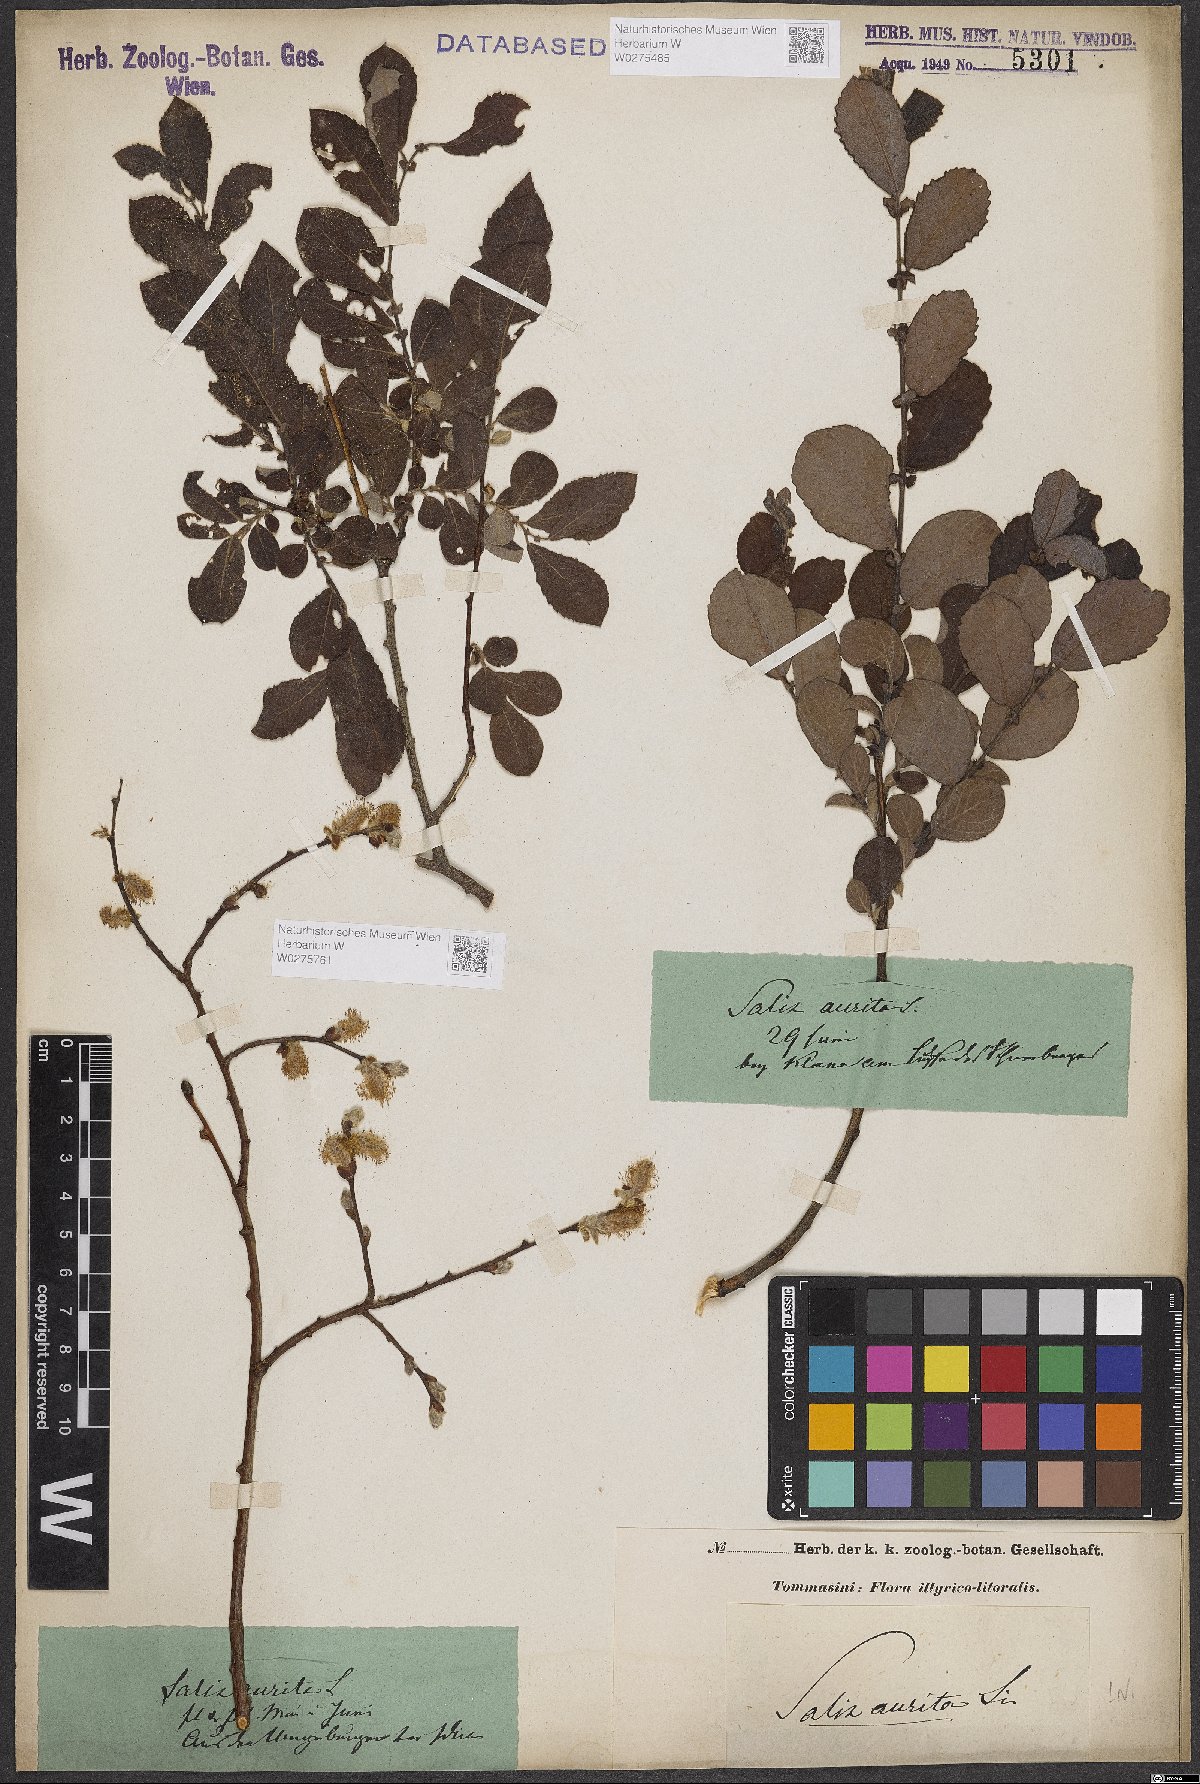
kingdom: Plantae
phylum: Tracheophyta
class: Magnoliopsida
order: Malpighiales
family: Salicaceae
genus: Salix
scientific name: Salix aurita
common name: Eared willow
